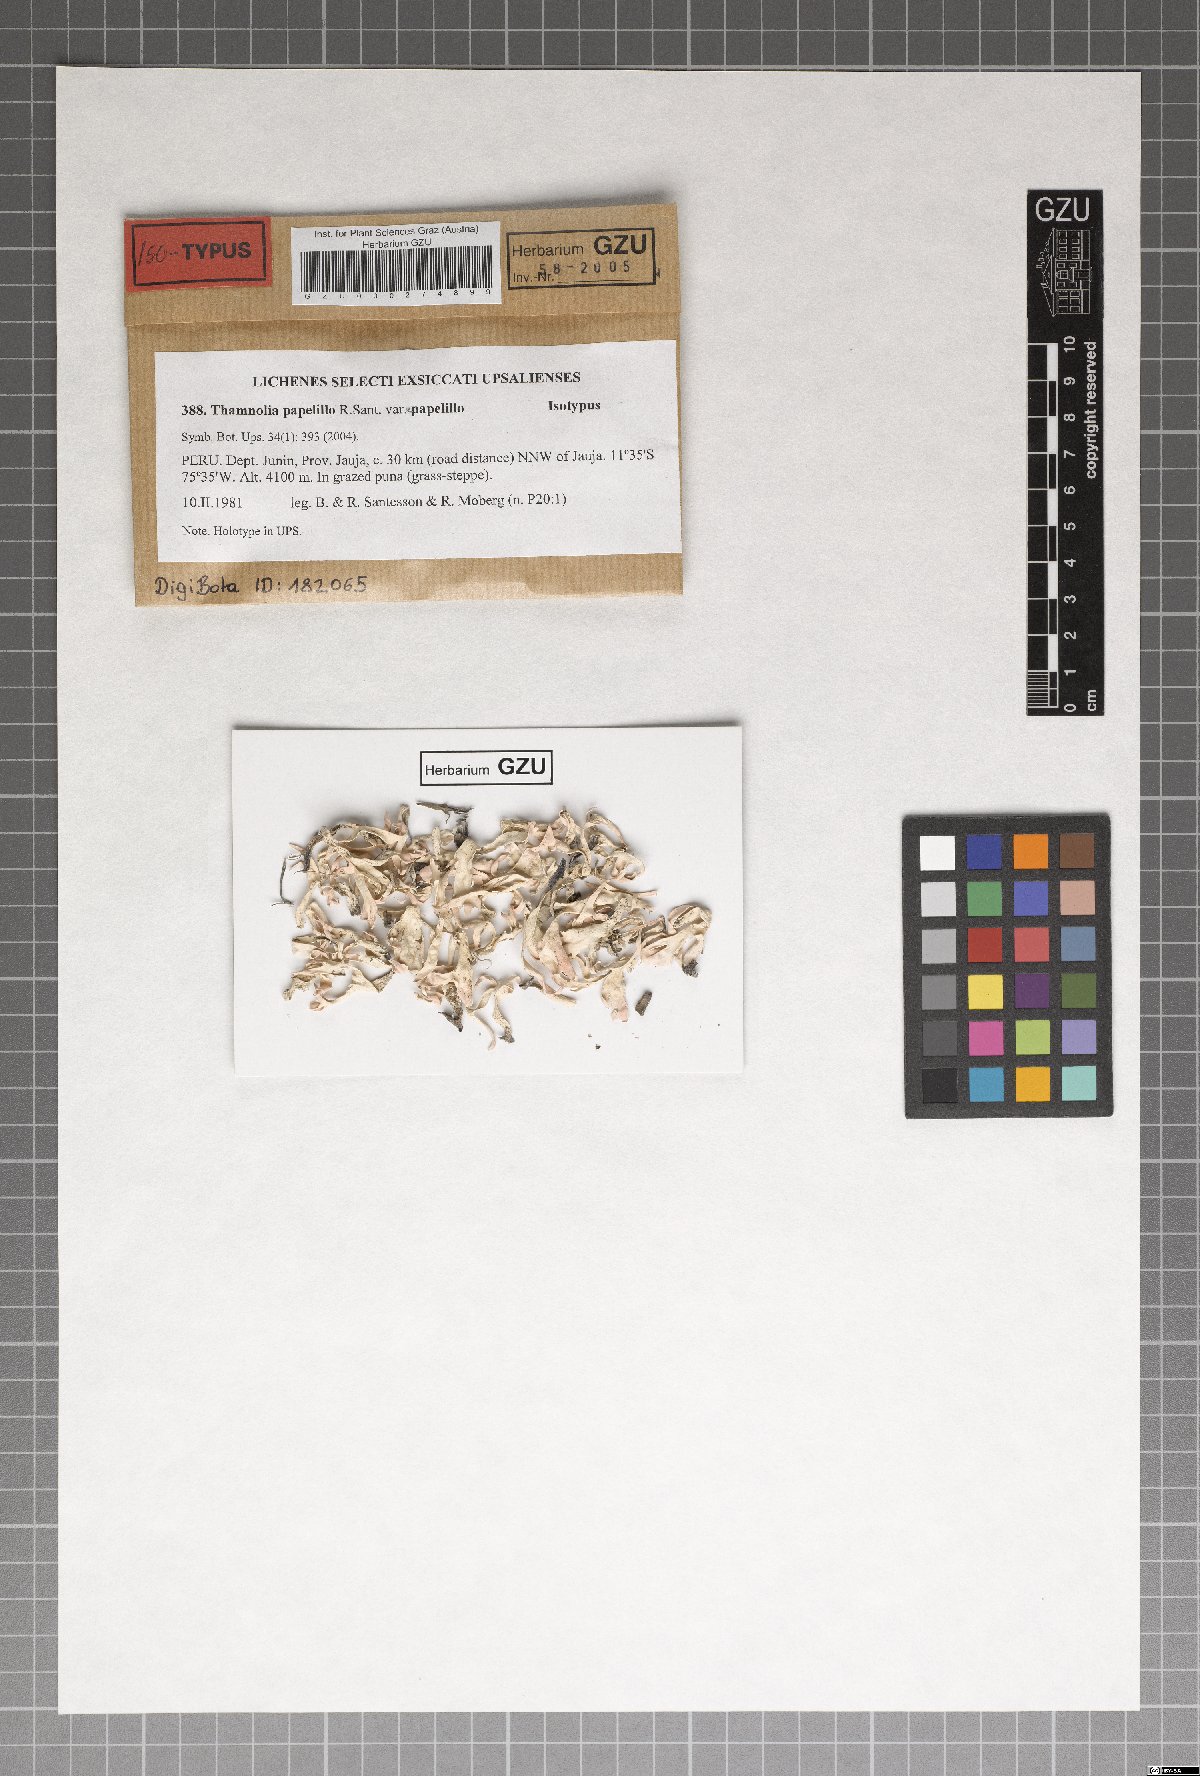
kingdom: Fungi
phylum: Ascomycota
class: Lecanoromycetes
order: Pertusariales
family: Icmadophilaceae
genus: Thamnolia
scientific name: Thamnolia papelillo
